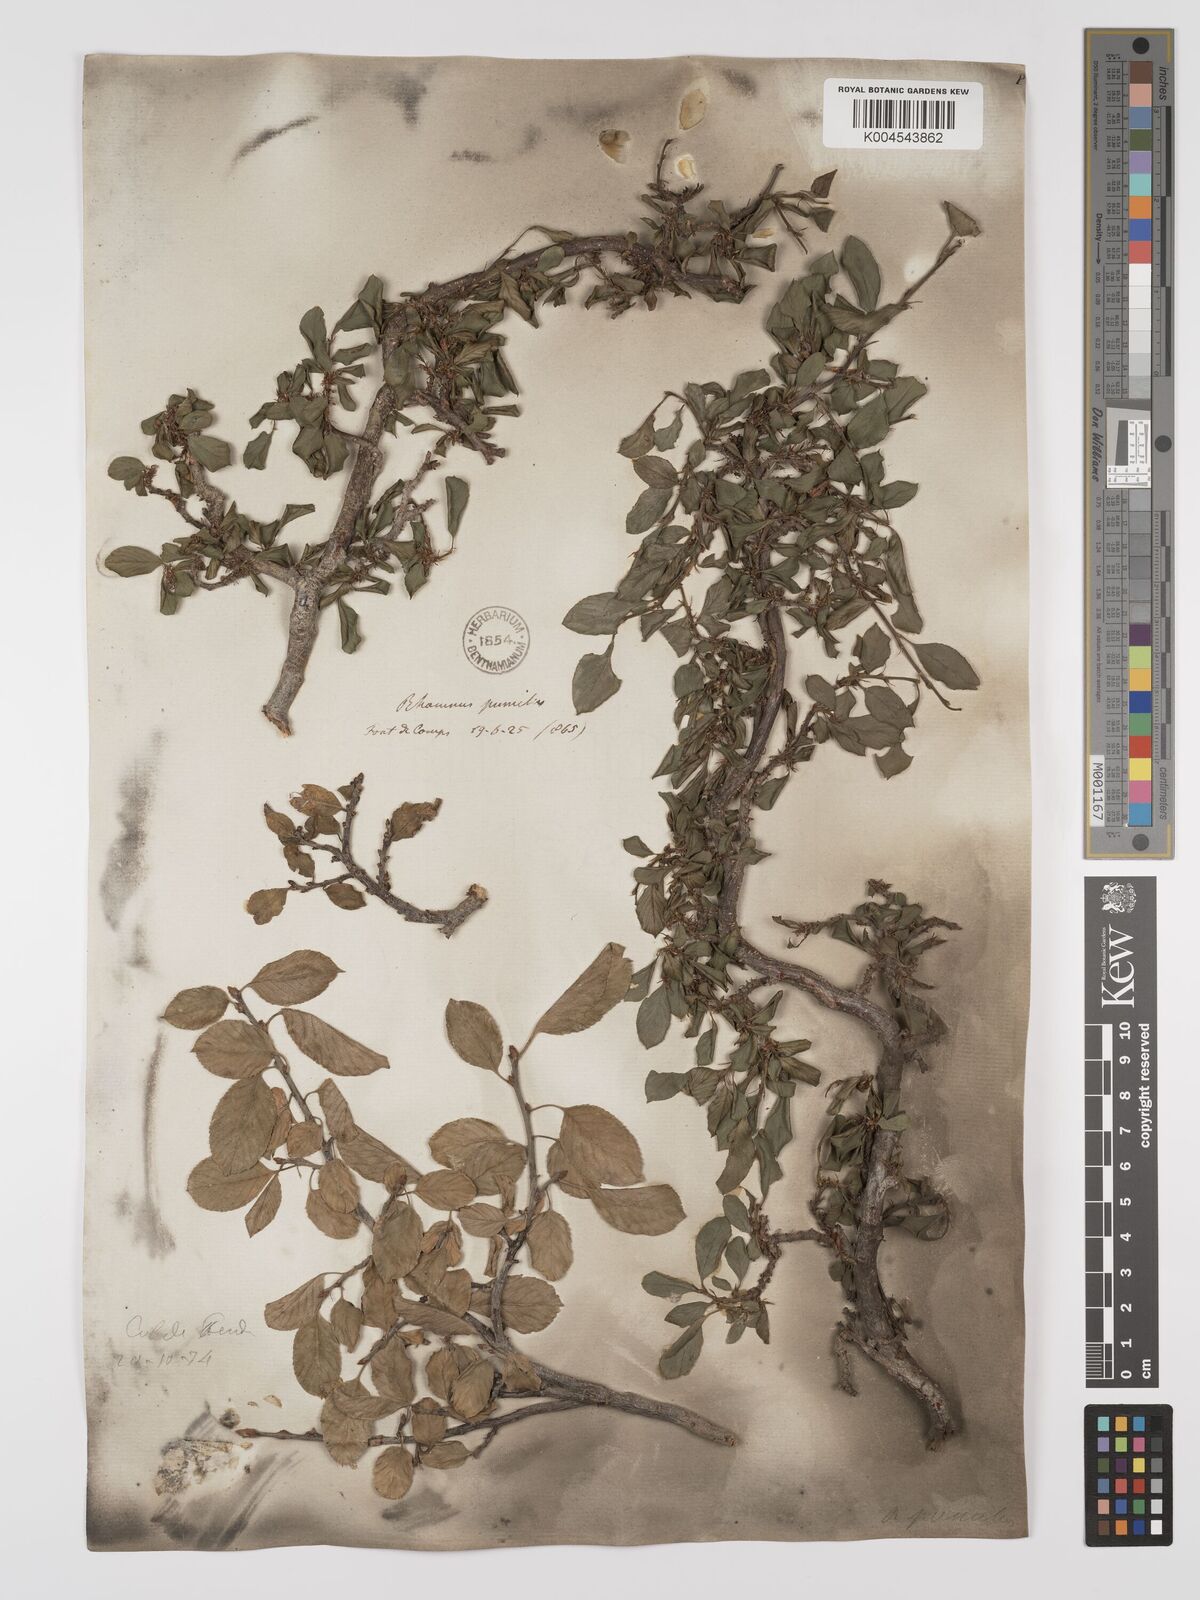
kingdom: Plantae
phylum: Tracheophyta
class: Magnoliopsida
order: Rosales
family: Rhamnaceae
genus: Rhamnus
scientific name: Rhamnus
